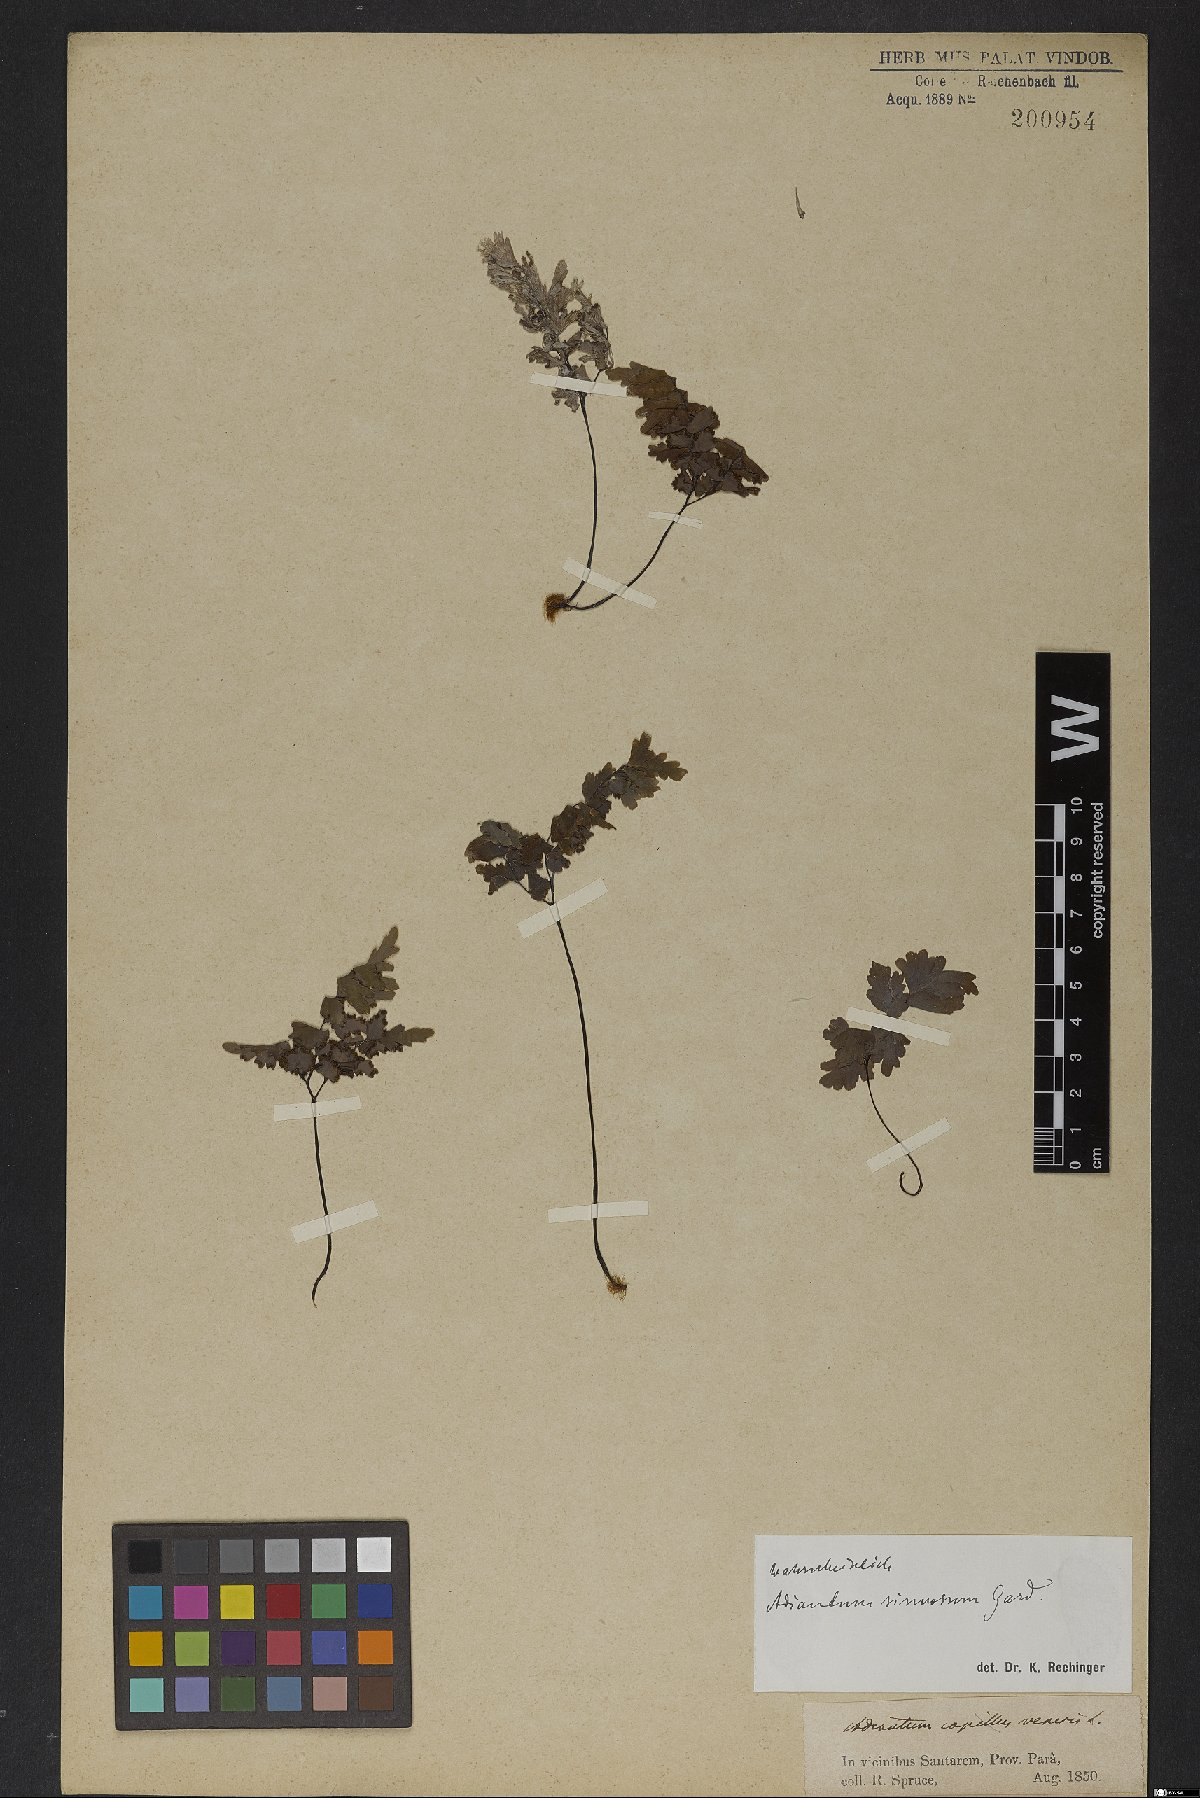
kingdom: Plantae
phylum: Tracheophyta
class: Polypodiopsida
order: Polypodiales
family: Pteridaceae
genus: Adiantum
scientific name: Adiantum sinuosum
